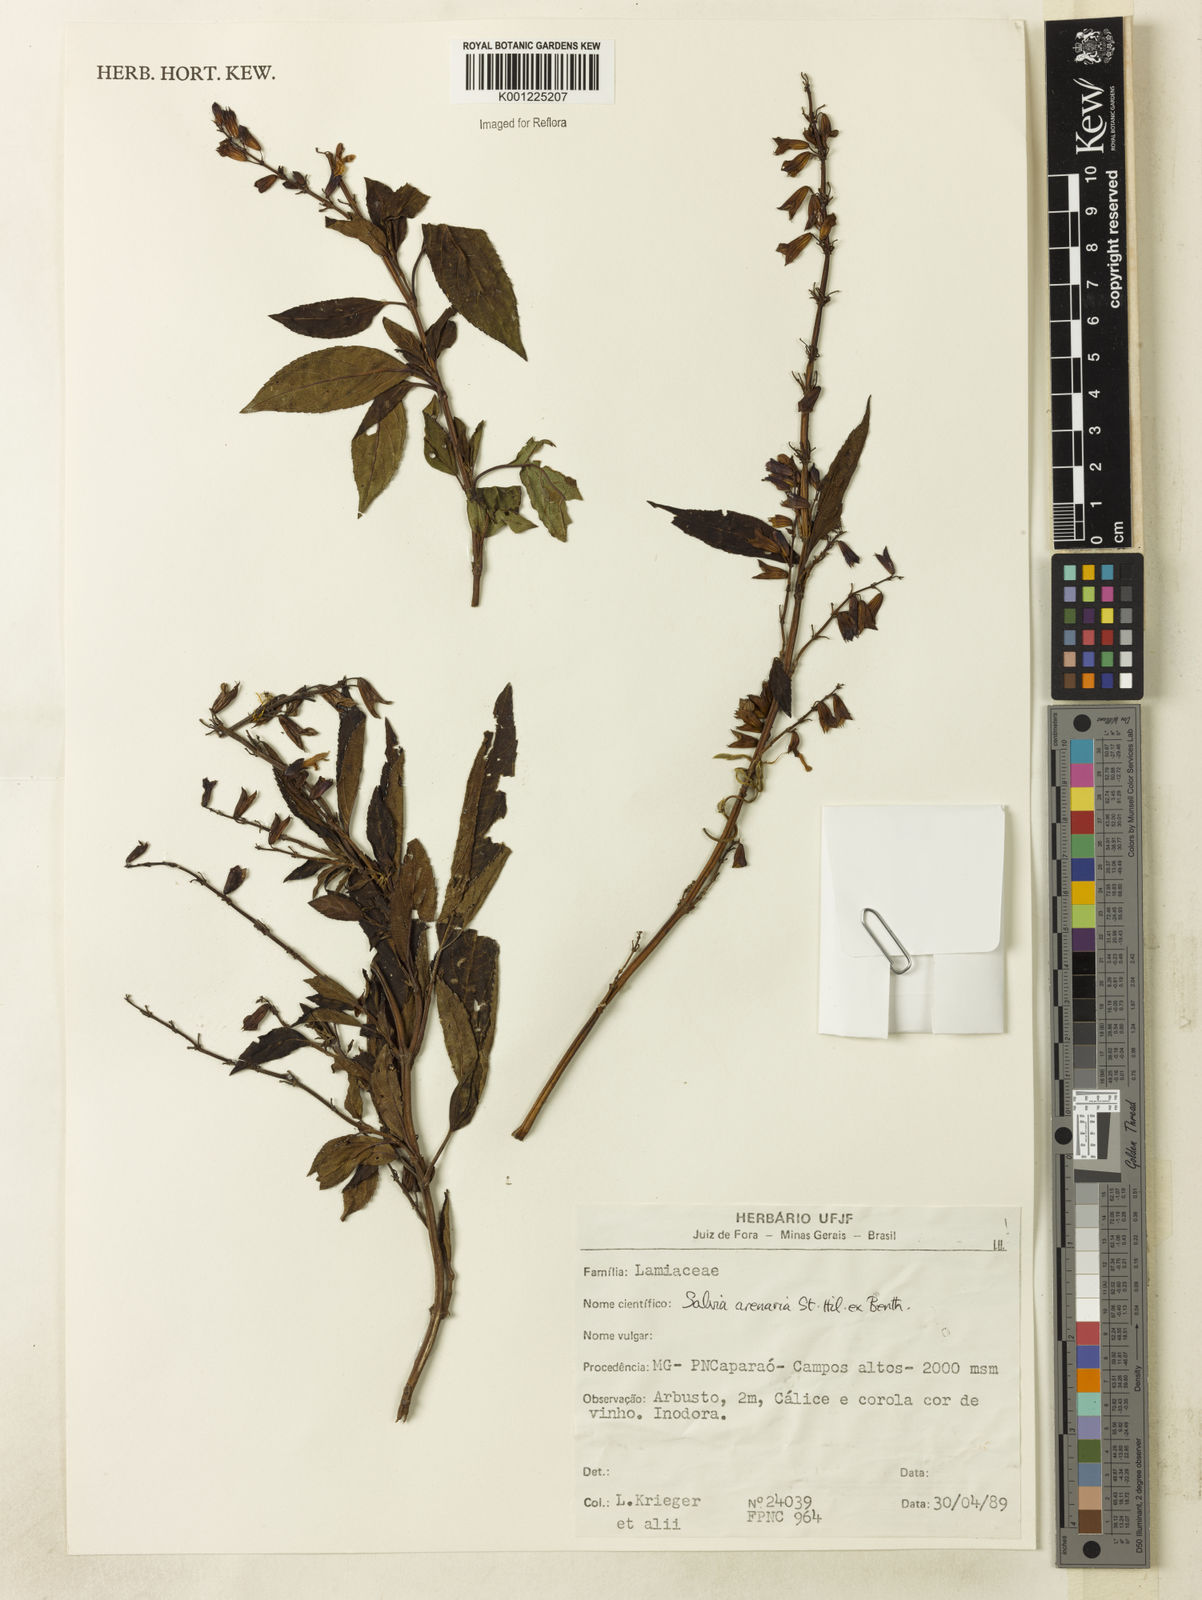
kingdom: Plantae
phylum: Tracheophyta
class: Magnoliopsida
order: Lamiales
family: Lamiaceae
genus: Salvia
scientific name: Salvia arenaria
